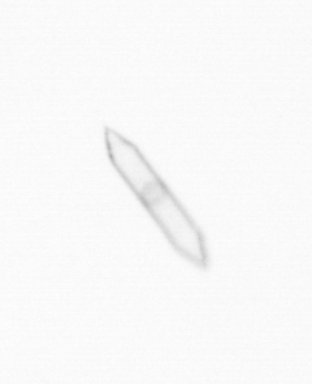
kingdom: Chromista
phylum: Ochrophyta
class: Bacillariophyceae
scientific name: Bacillariophyceae
